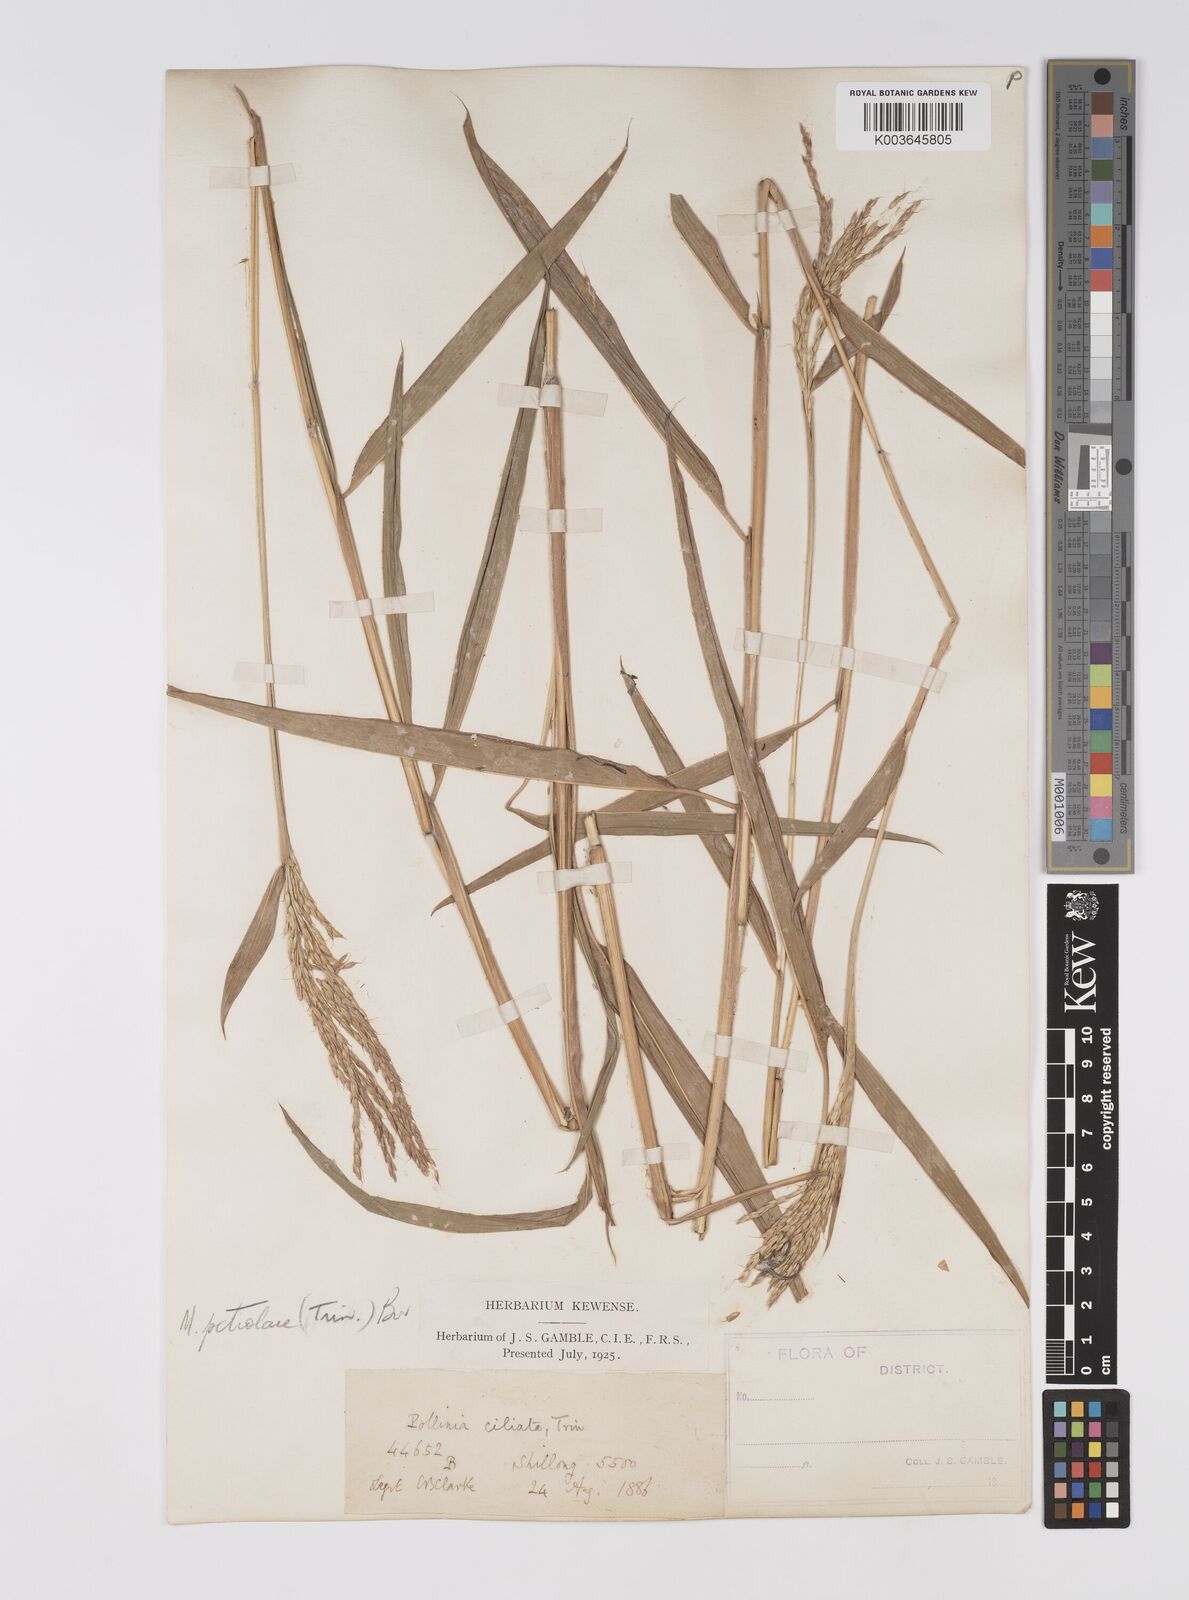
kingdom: Plantae
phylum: Tracheophyta
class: Liliopsida
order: Poales
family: Poaceae
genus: Microstegium
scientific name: Microstegium petiolare
